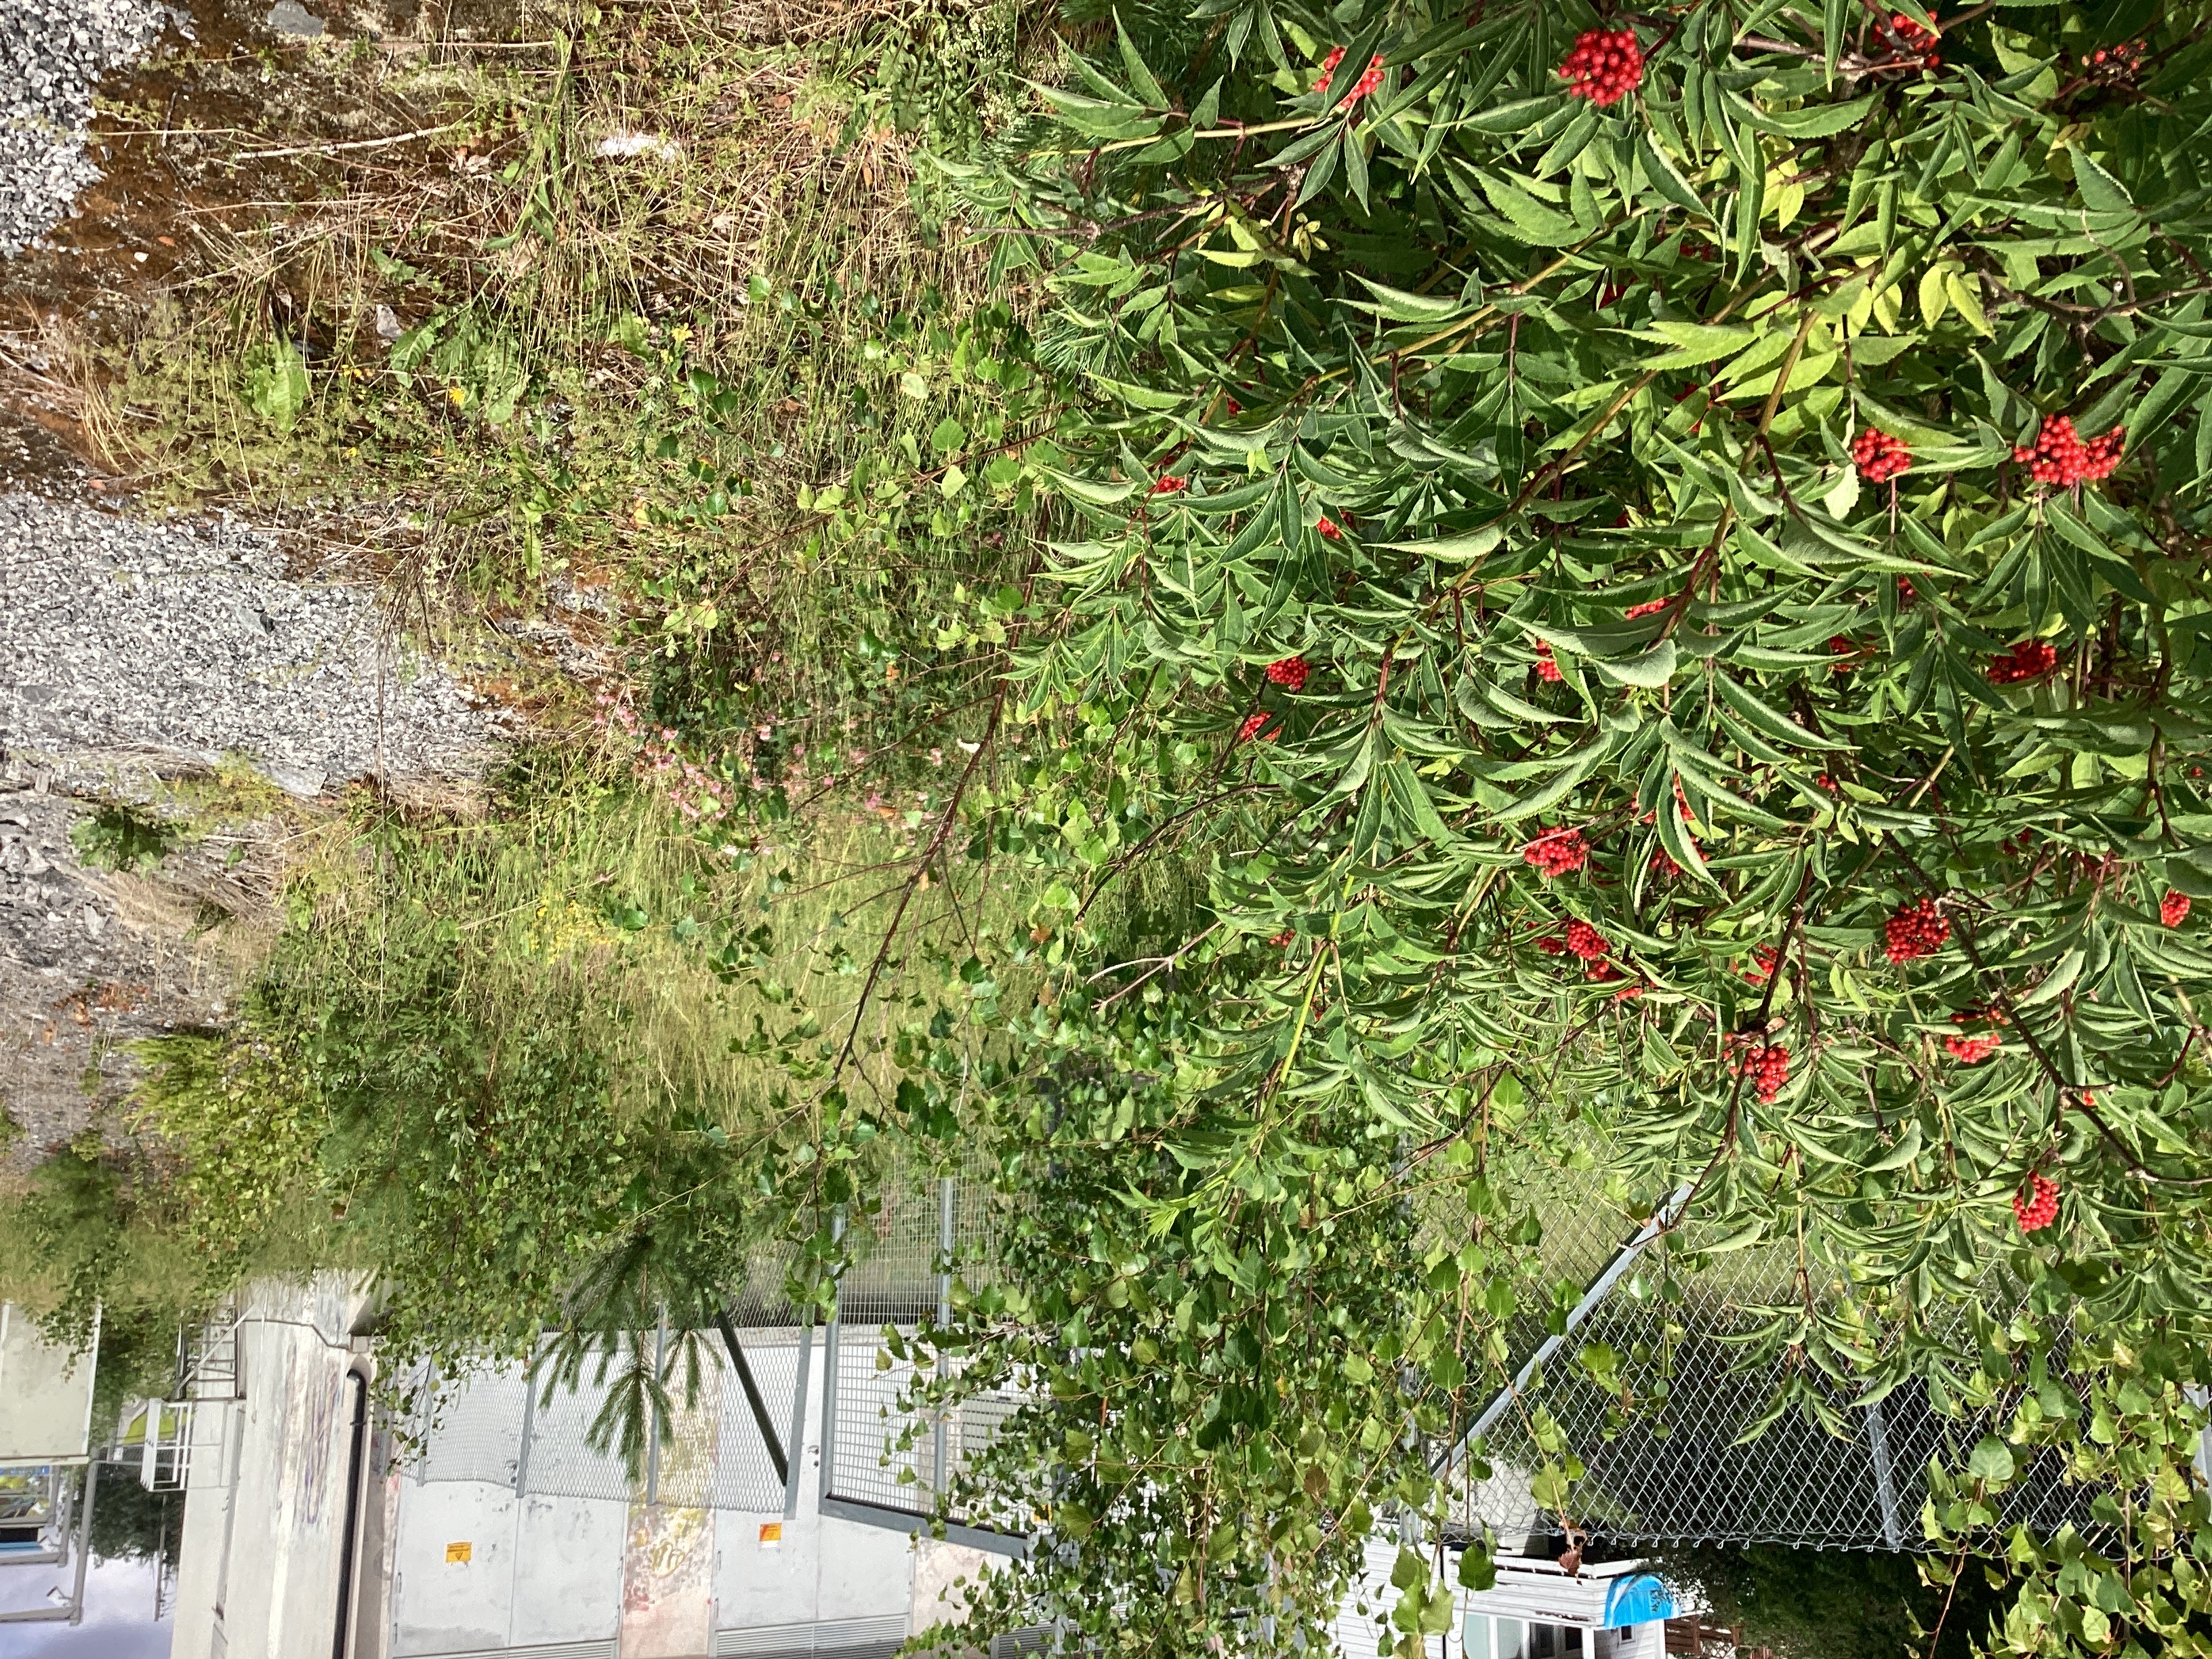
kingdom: Plantae
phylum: Tracheophyta
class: Magnoliopsida
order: Dipsacales
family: Viburnaceae
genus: Sambucus
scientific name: Sambucus racemosa
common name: rødhyll
